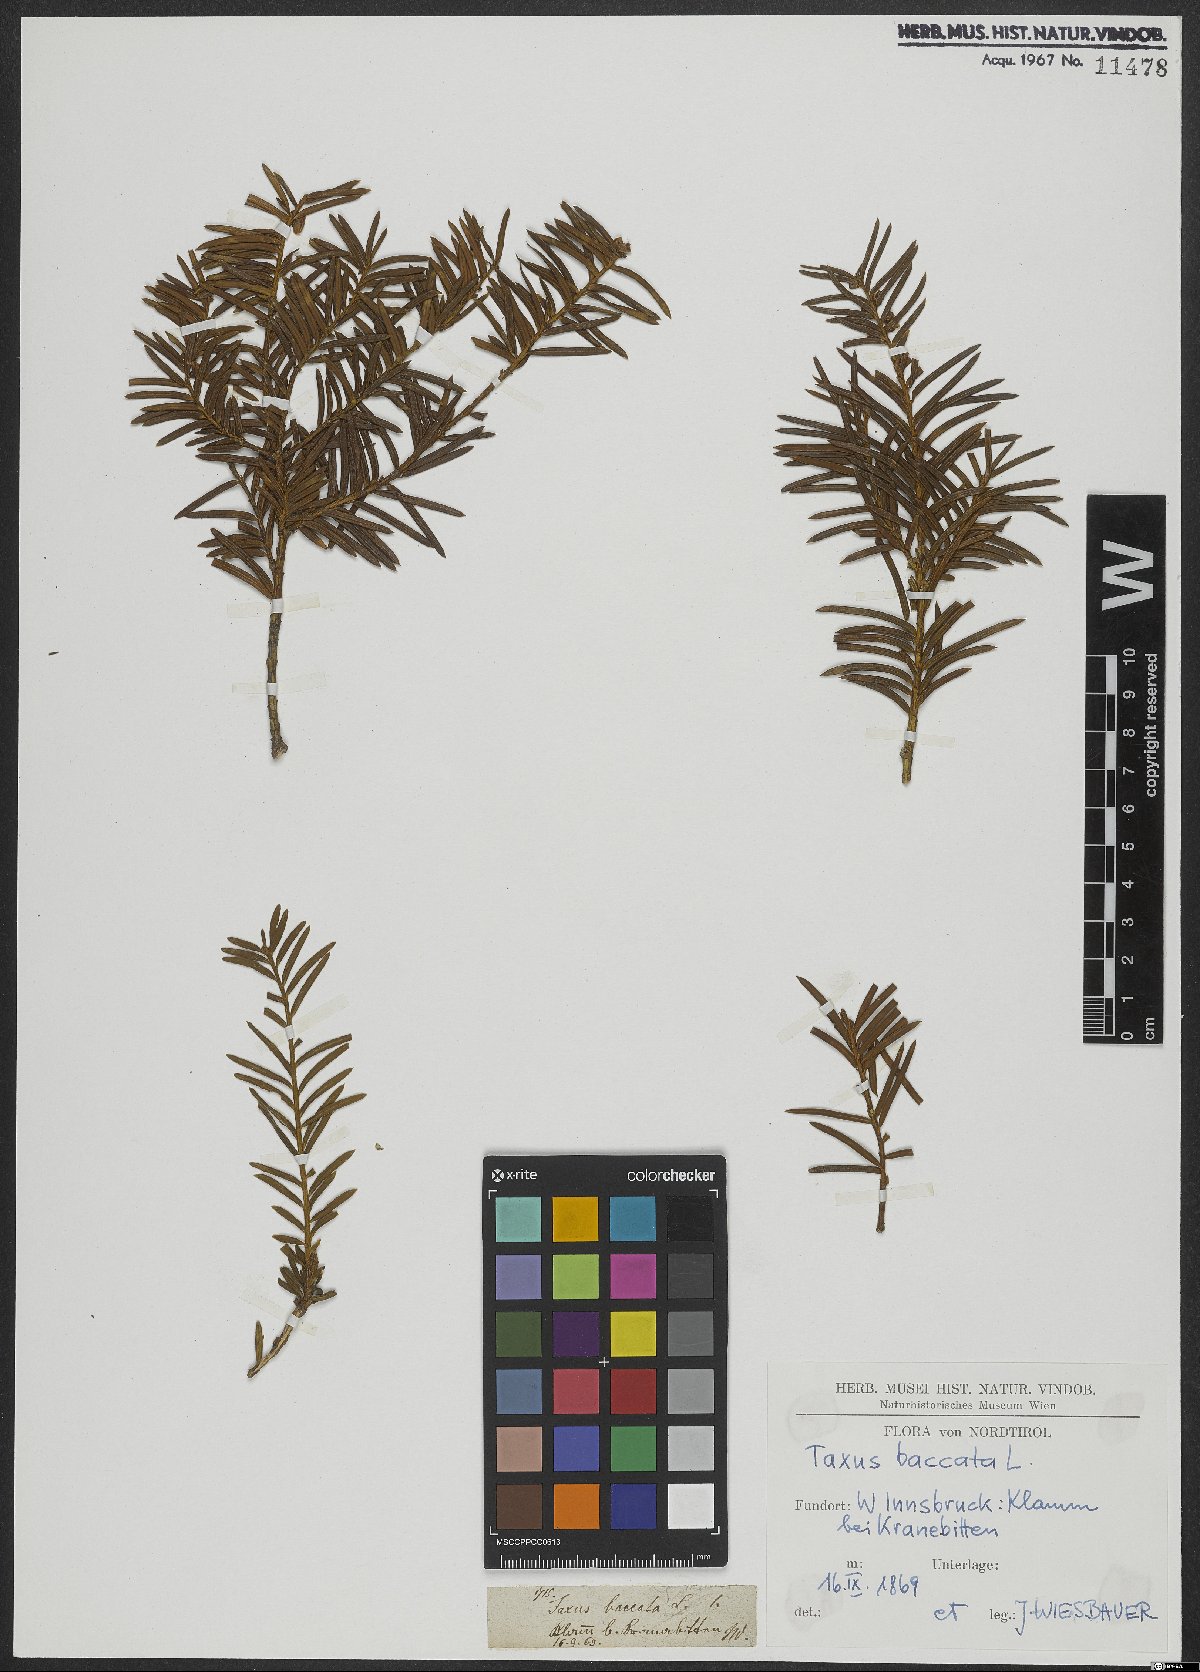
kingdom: Plantae
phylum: Tracheophyta
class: Pinopsida
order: Pinales
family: Taxaceae
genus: Taxus
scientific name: Taxus baccata
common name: Yew
